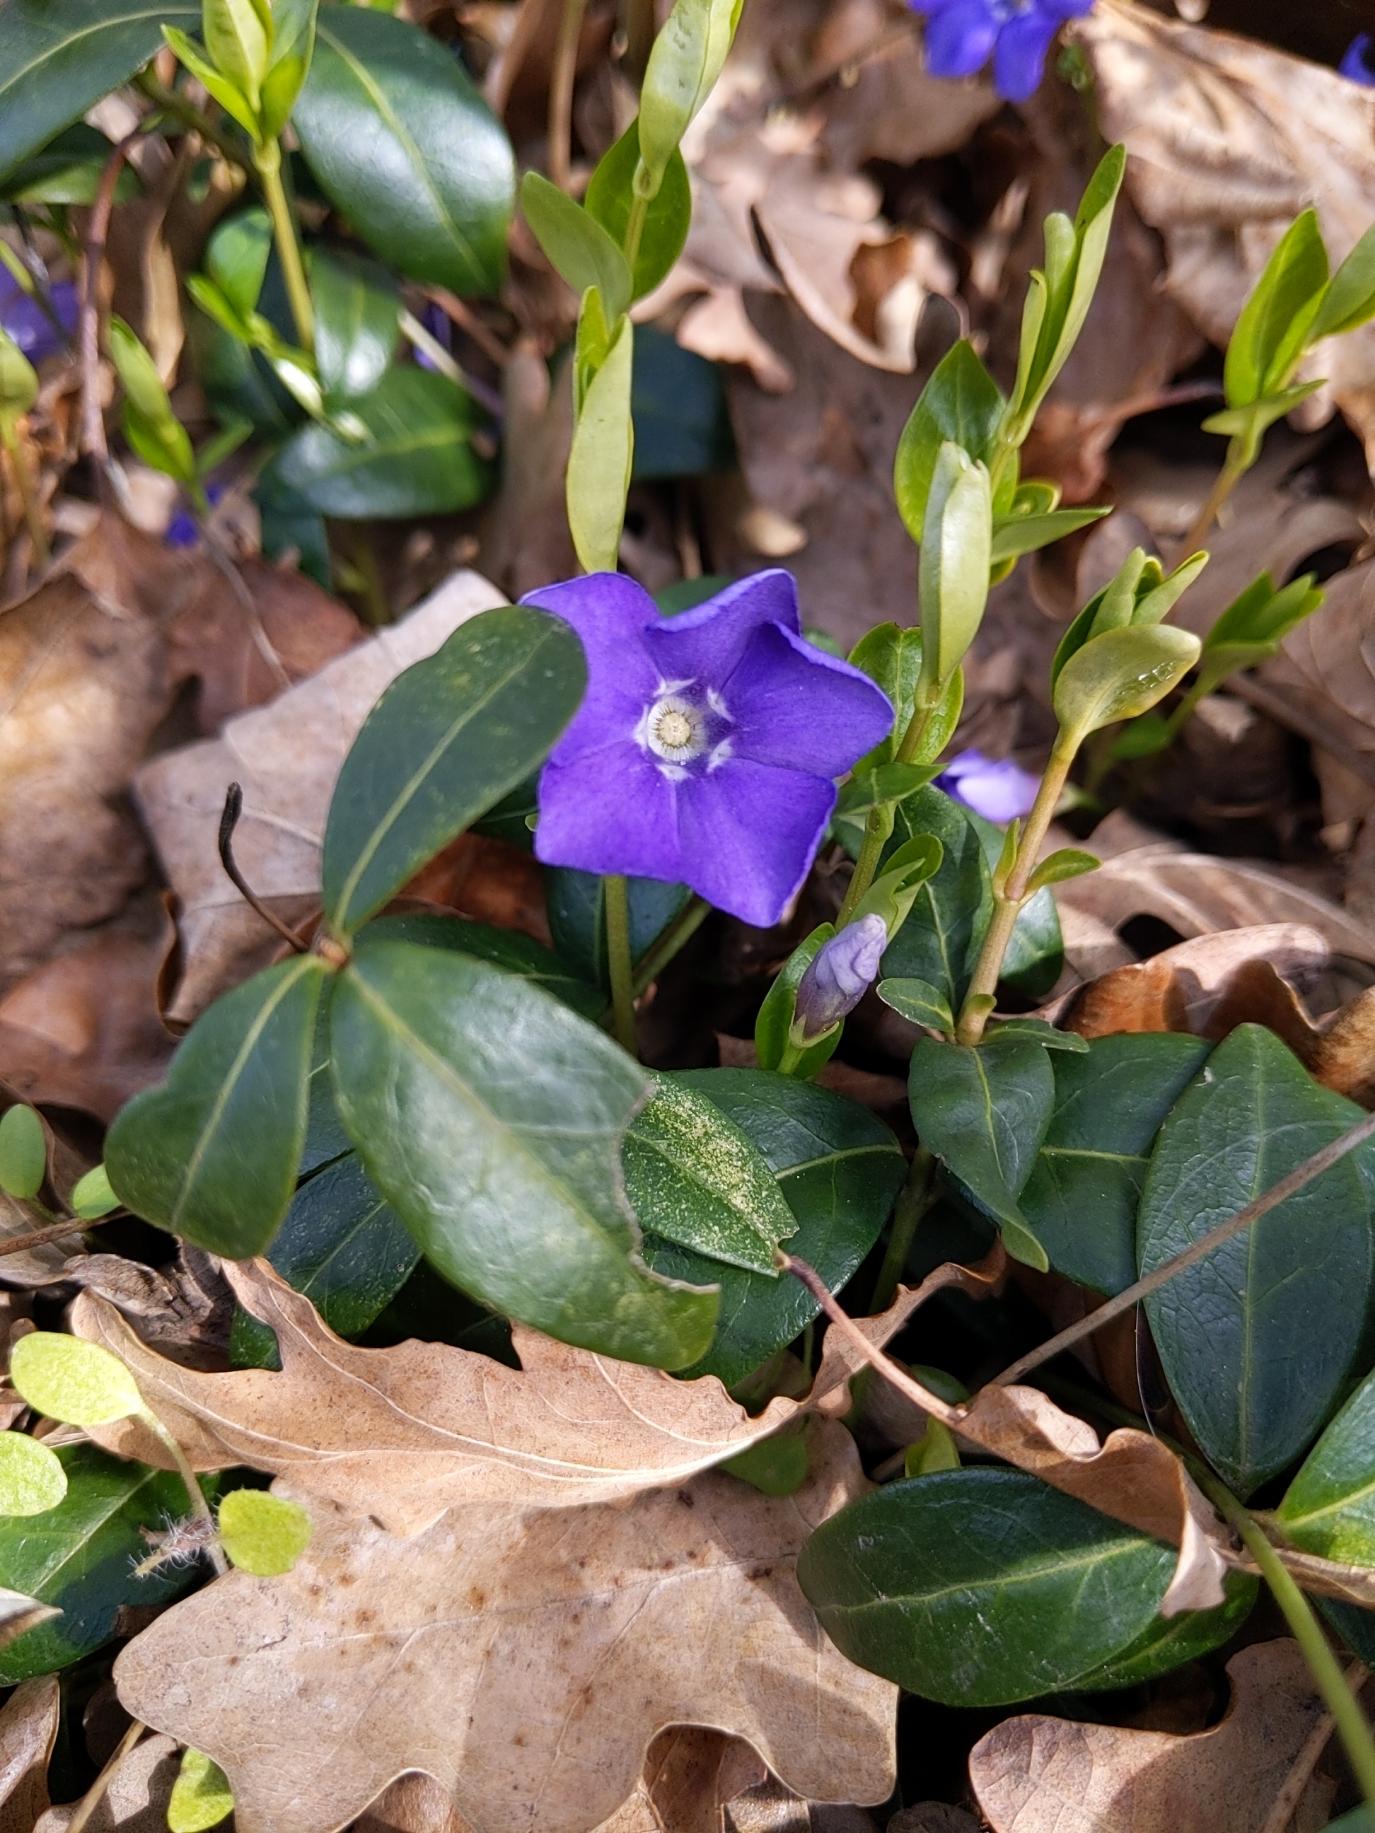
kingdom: Plantae
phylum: Tracheophyta
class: Magnoliopsida
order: Gentianales
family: Apocynaceae
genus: Vinca
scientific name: Vinca minor
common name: Liden singrøn
